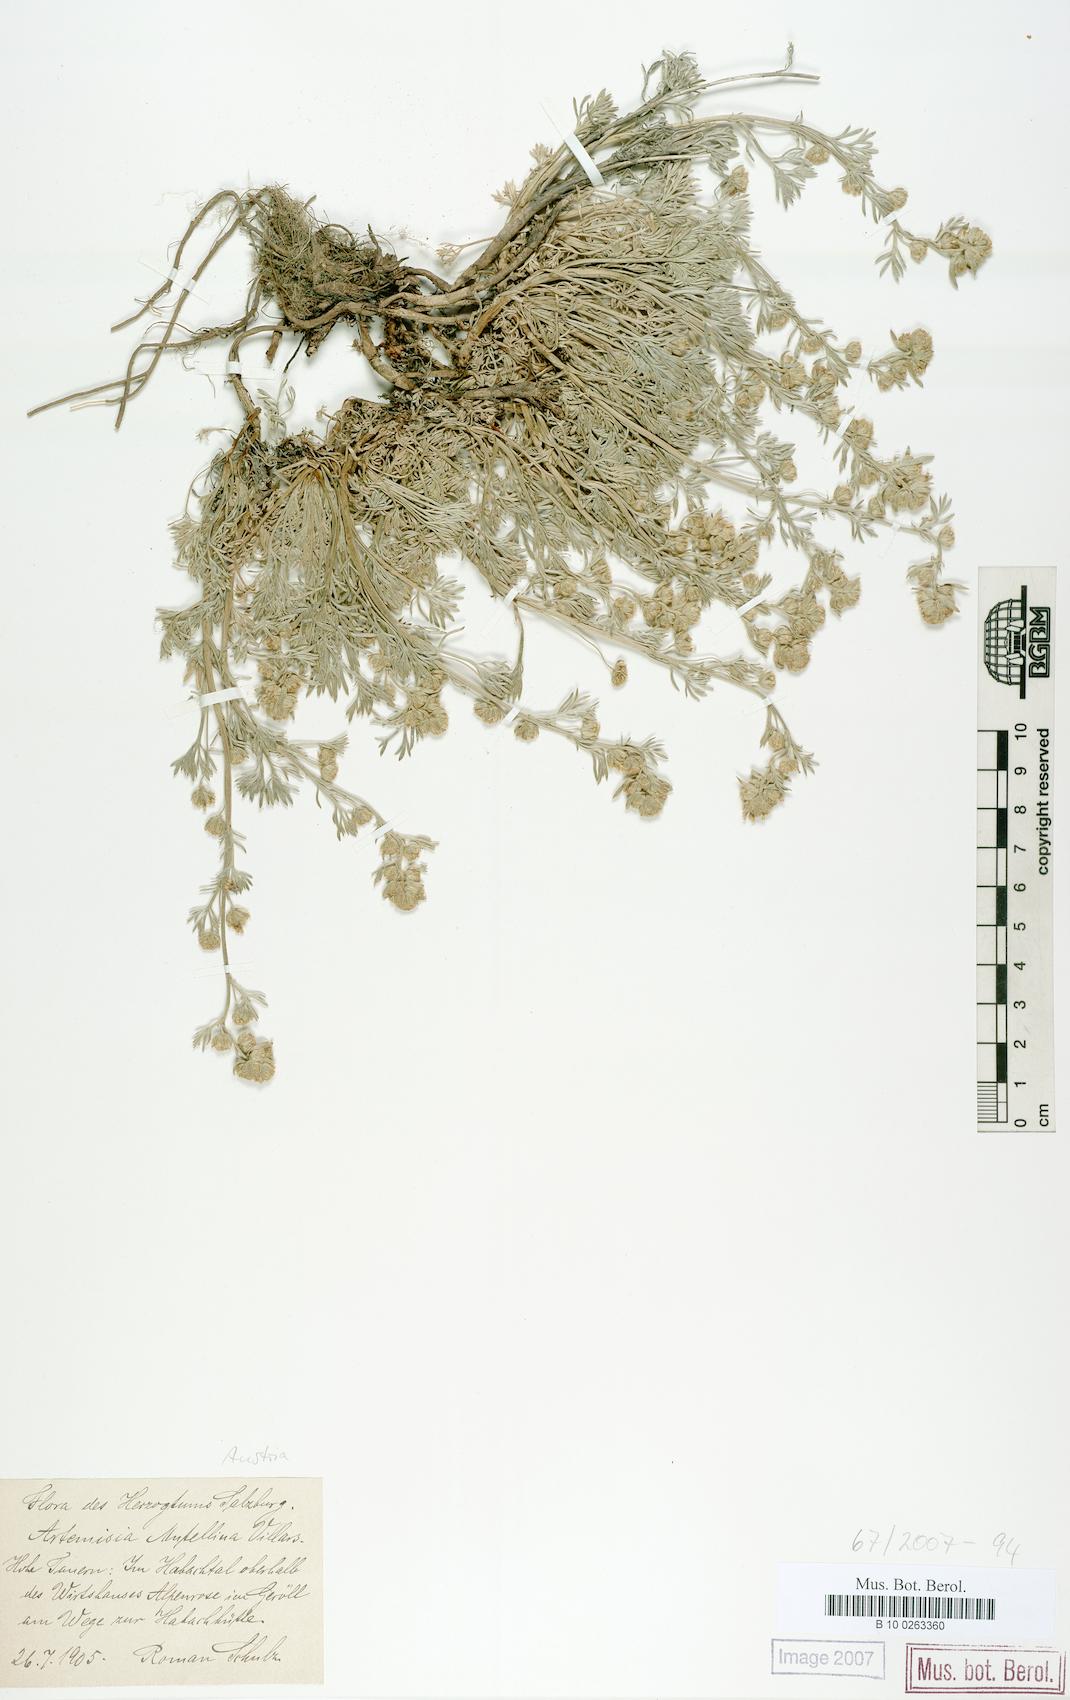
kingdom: Plantae
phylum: Tracheophyta
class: Magnoliopsida
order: Asterales
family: Asteraceae
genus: Artemisia
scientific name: Artemisia mutellina
